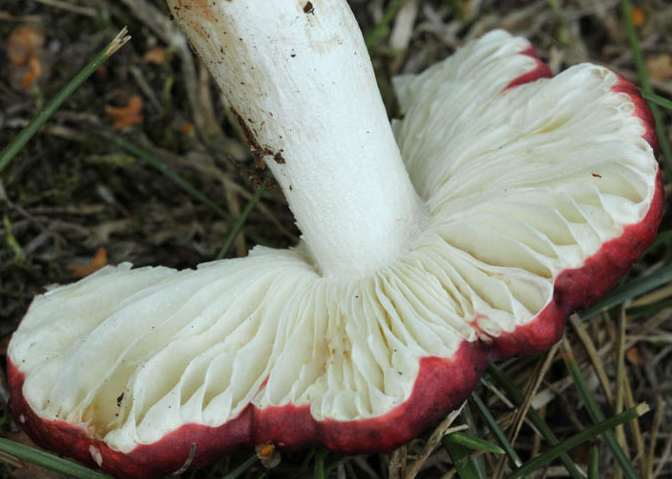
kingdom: Fungi
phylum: Basidiomycota
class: Agaricomycetes
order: Russulales
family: Russulaceae
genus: Russula
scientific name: Russula atropurpurea
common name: purpurbroget skørhat
